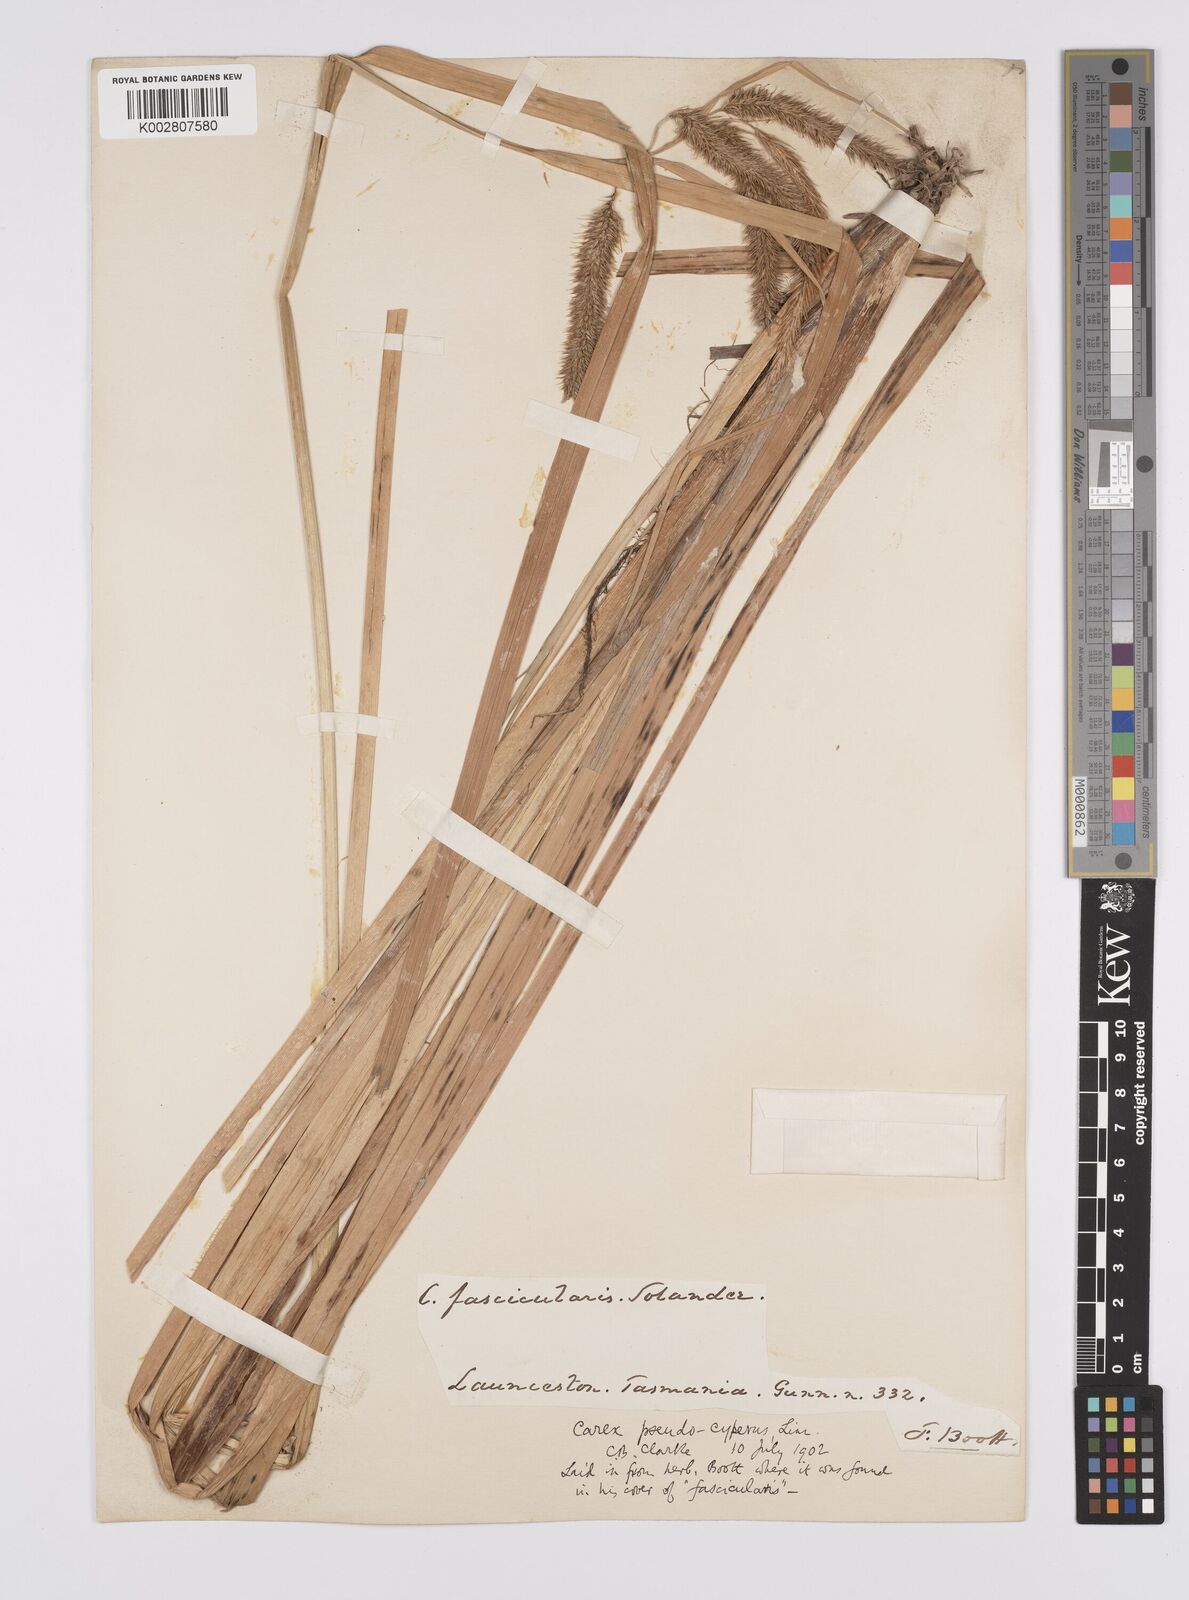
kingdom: Plantae
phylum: Tracheophyta
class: Liliopsida
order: Poales
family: Cyperaceae
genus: Carex
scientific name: Carex fascicularis
